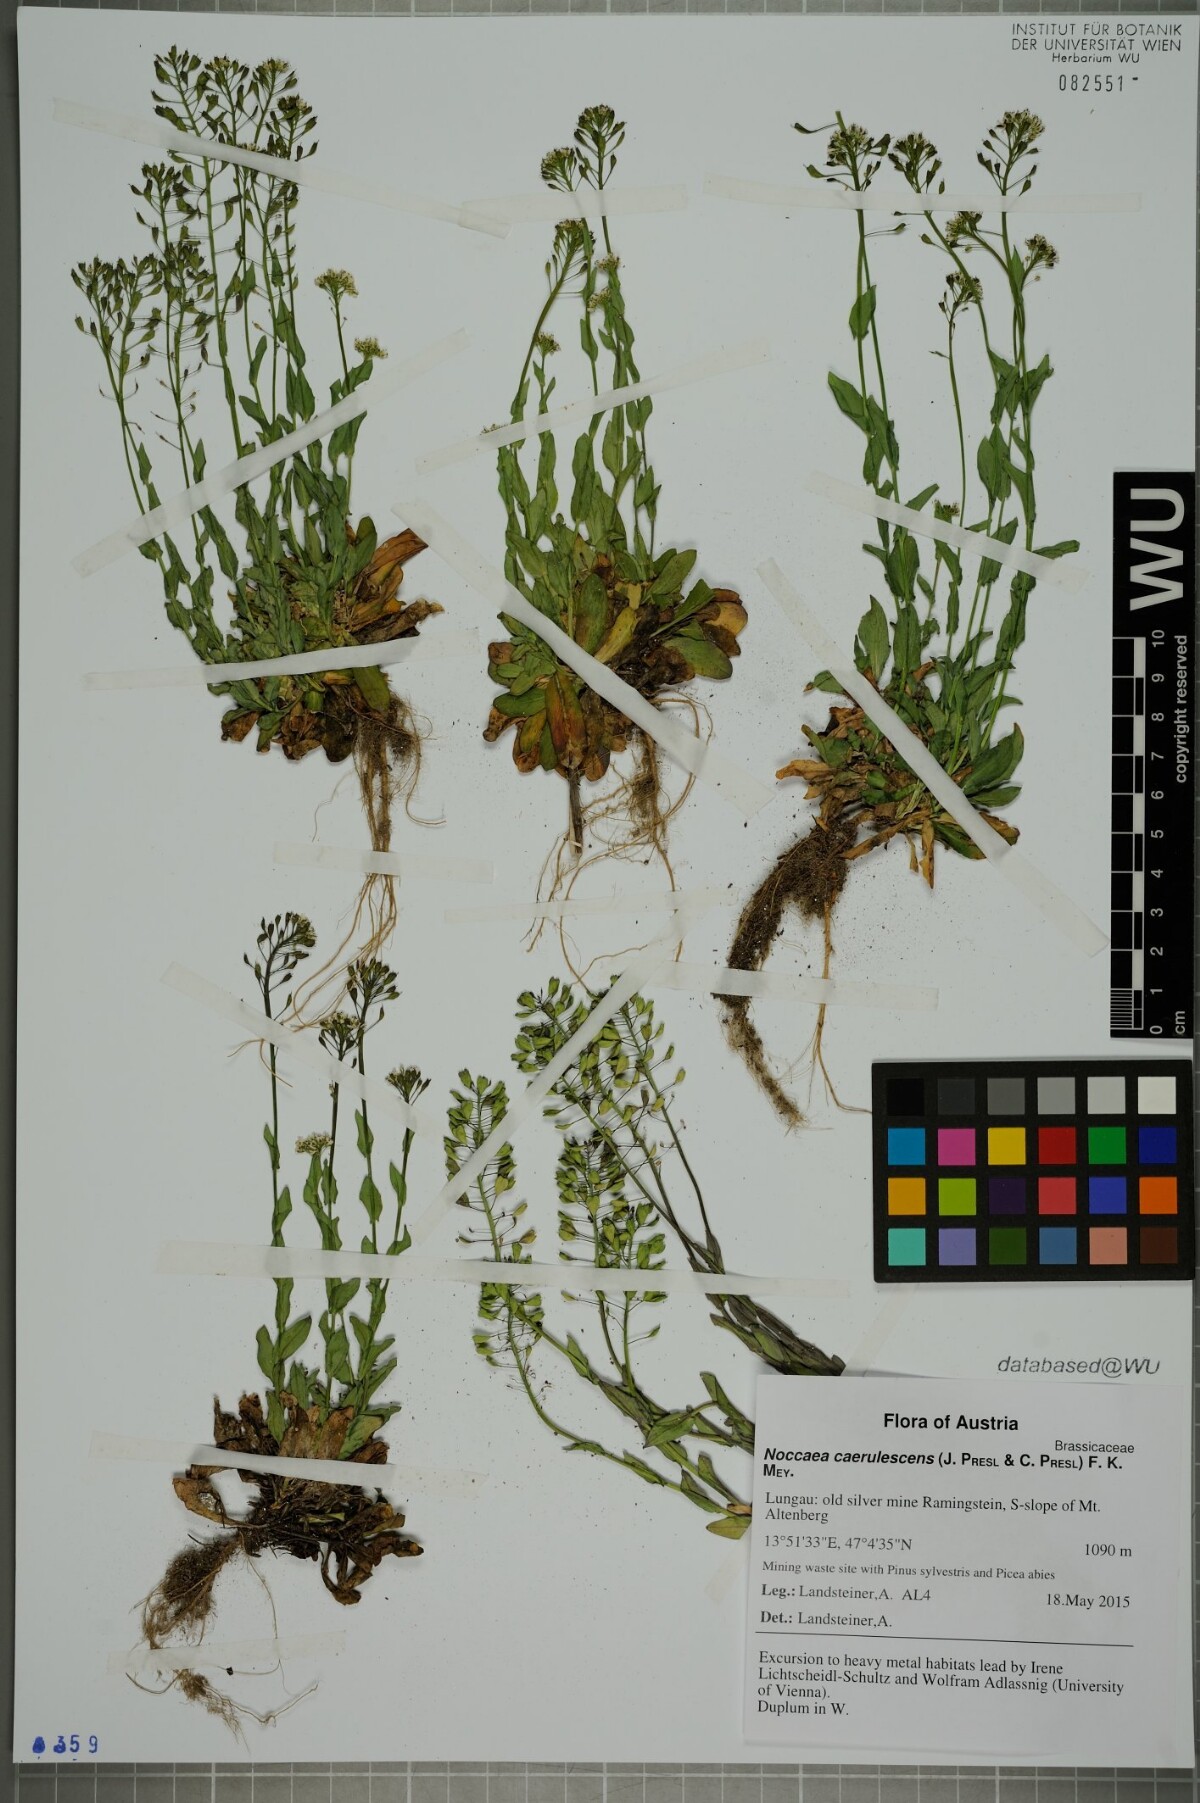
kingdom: Plantae
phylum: Tracheophyta
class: Magnoliopsida
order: Brassicales
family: Brassicaceae
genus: Noccaea
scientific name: Noccaea caerulescens
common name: Alpine pennycress
